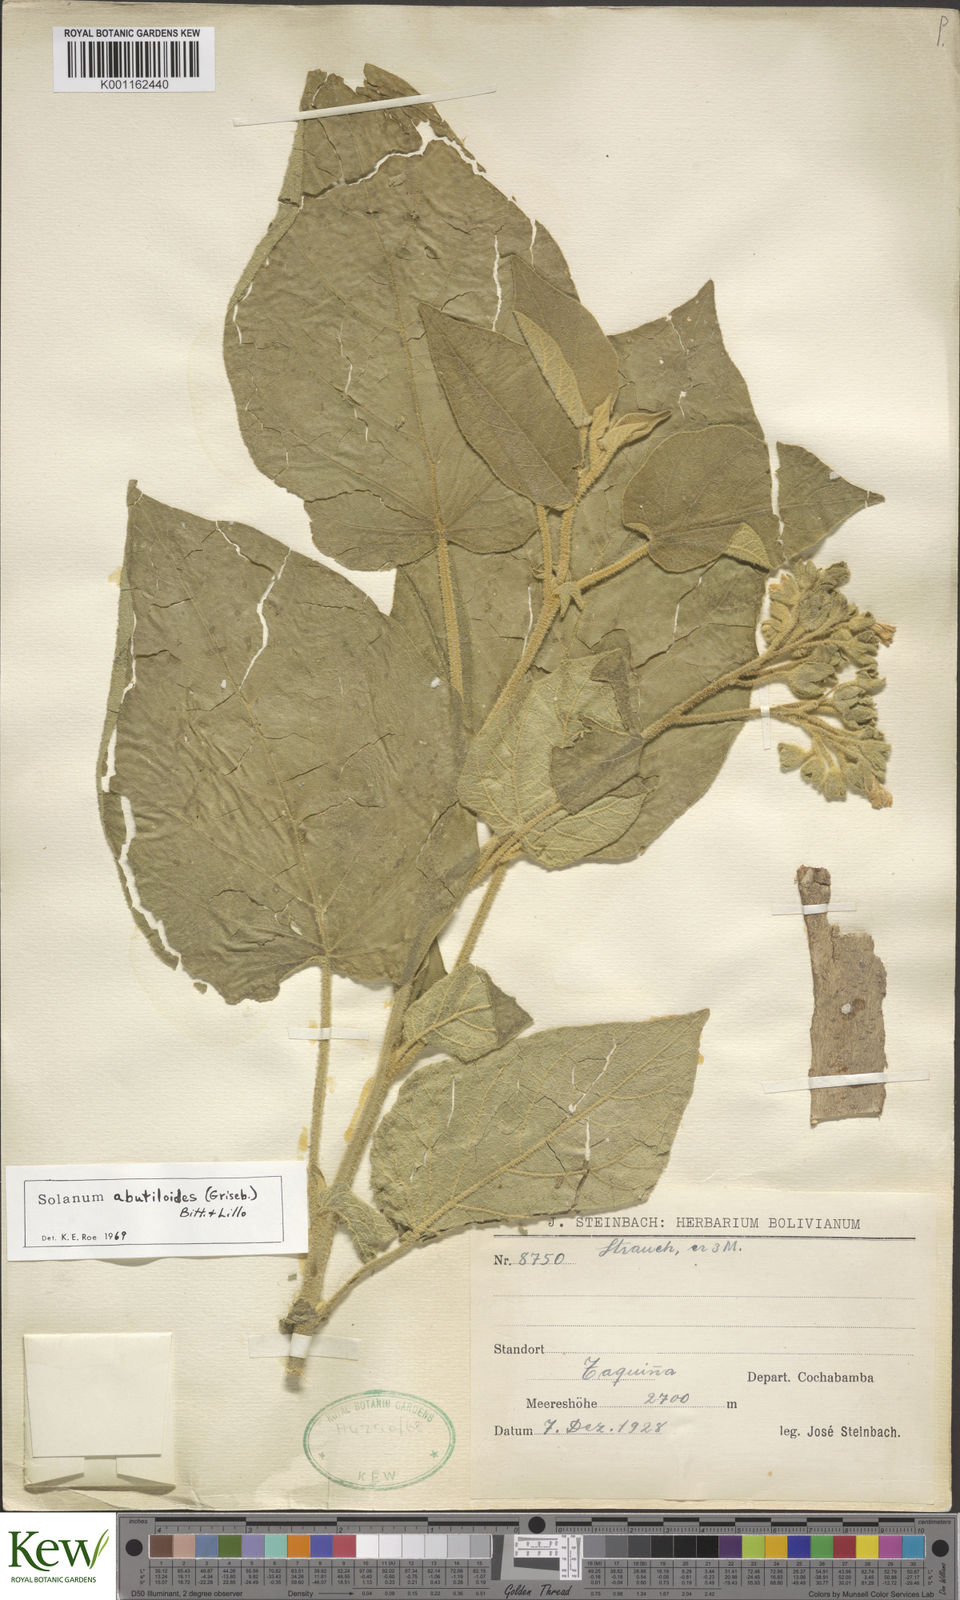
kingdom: Plantae
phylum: Tracheophyta
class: Magnoliopsida
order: Solanales
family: Solanaceae
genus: Solanum
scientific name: Solanum abutiloides
